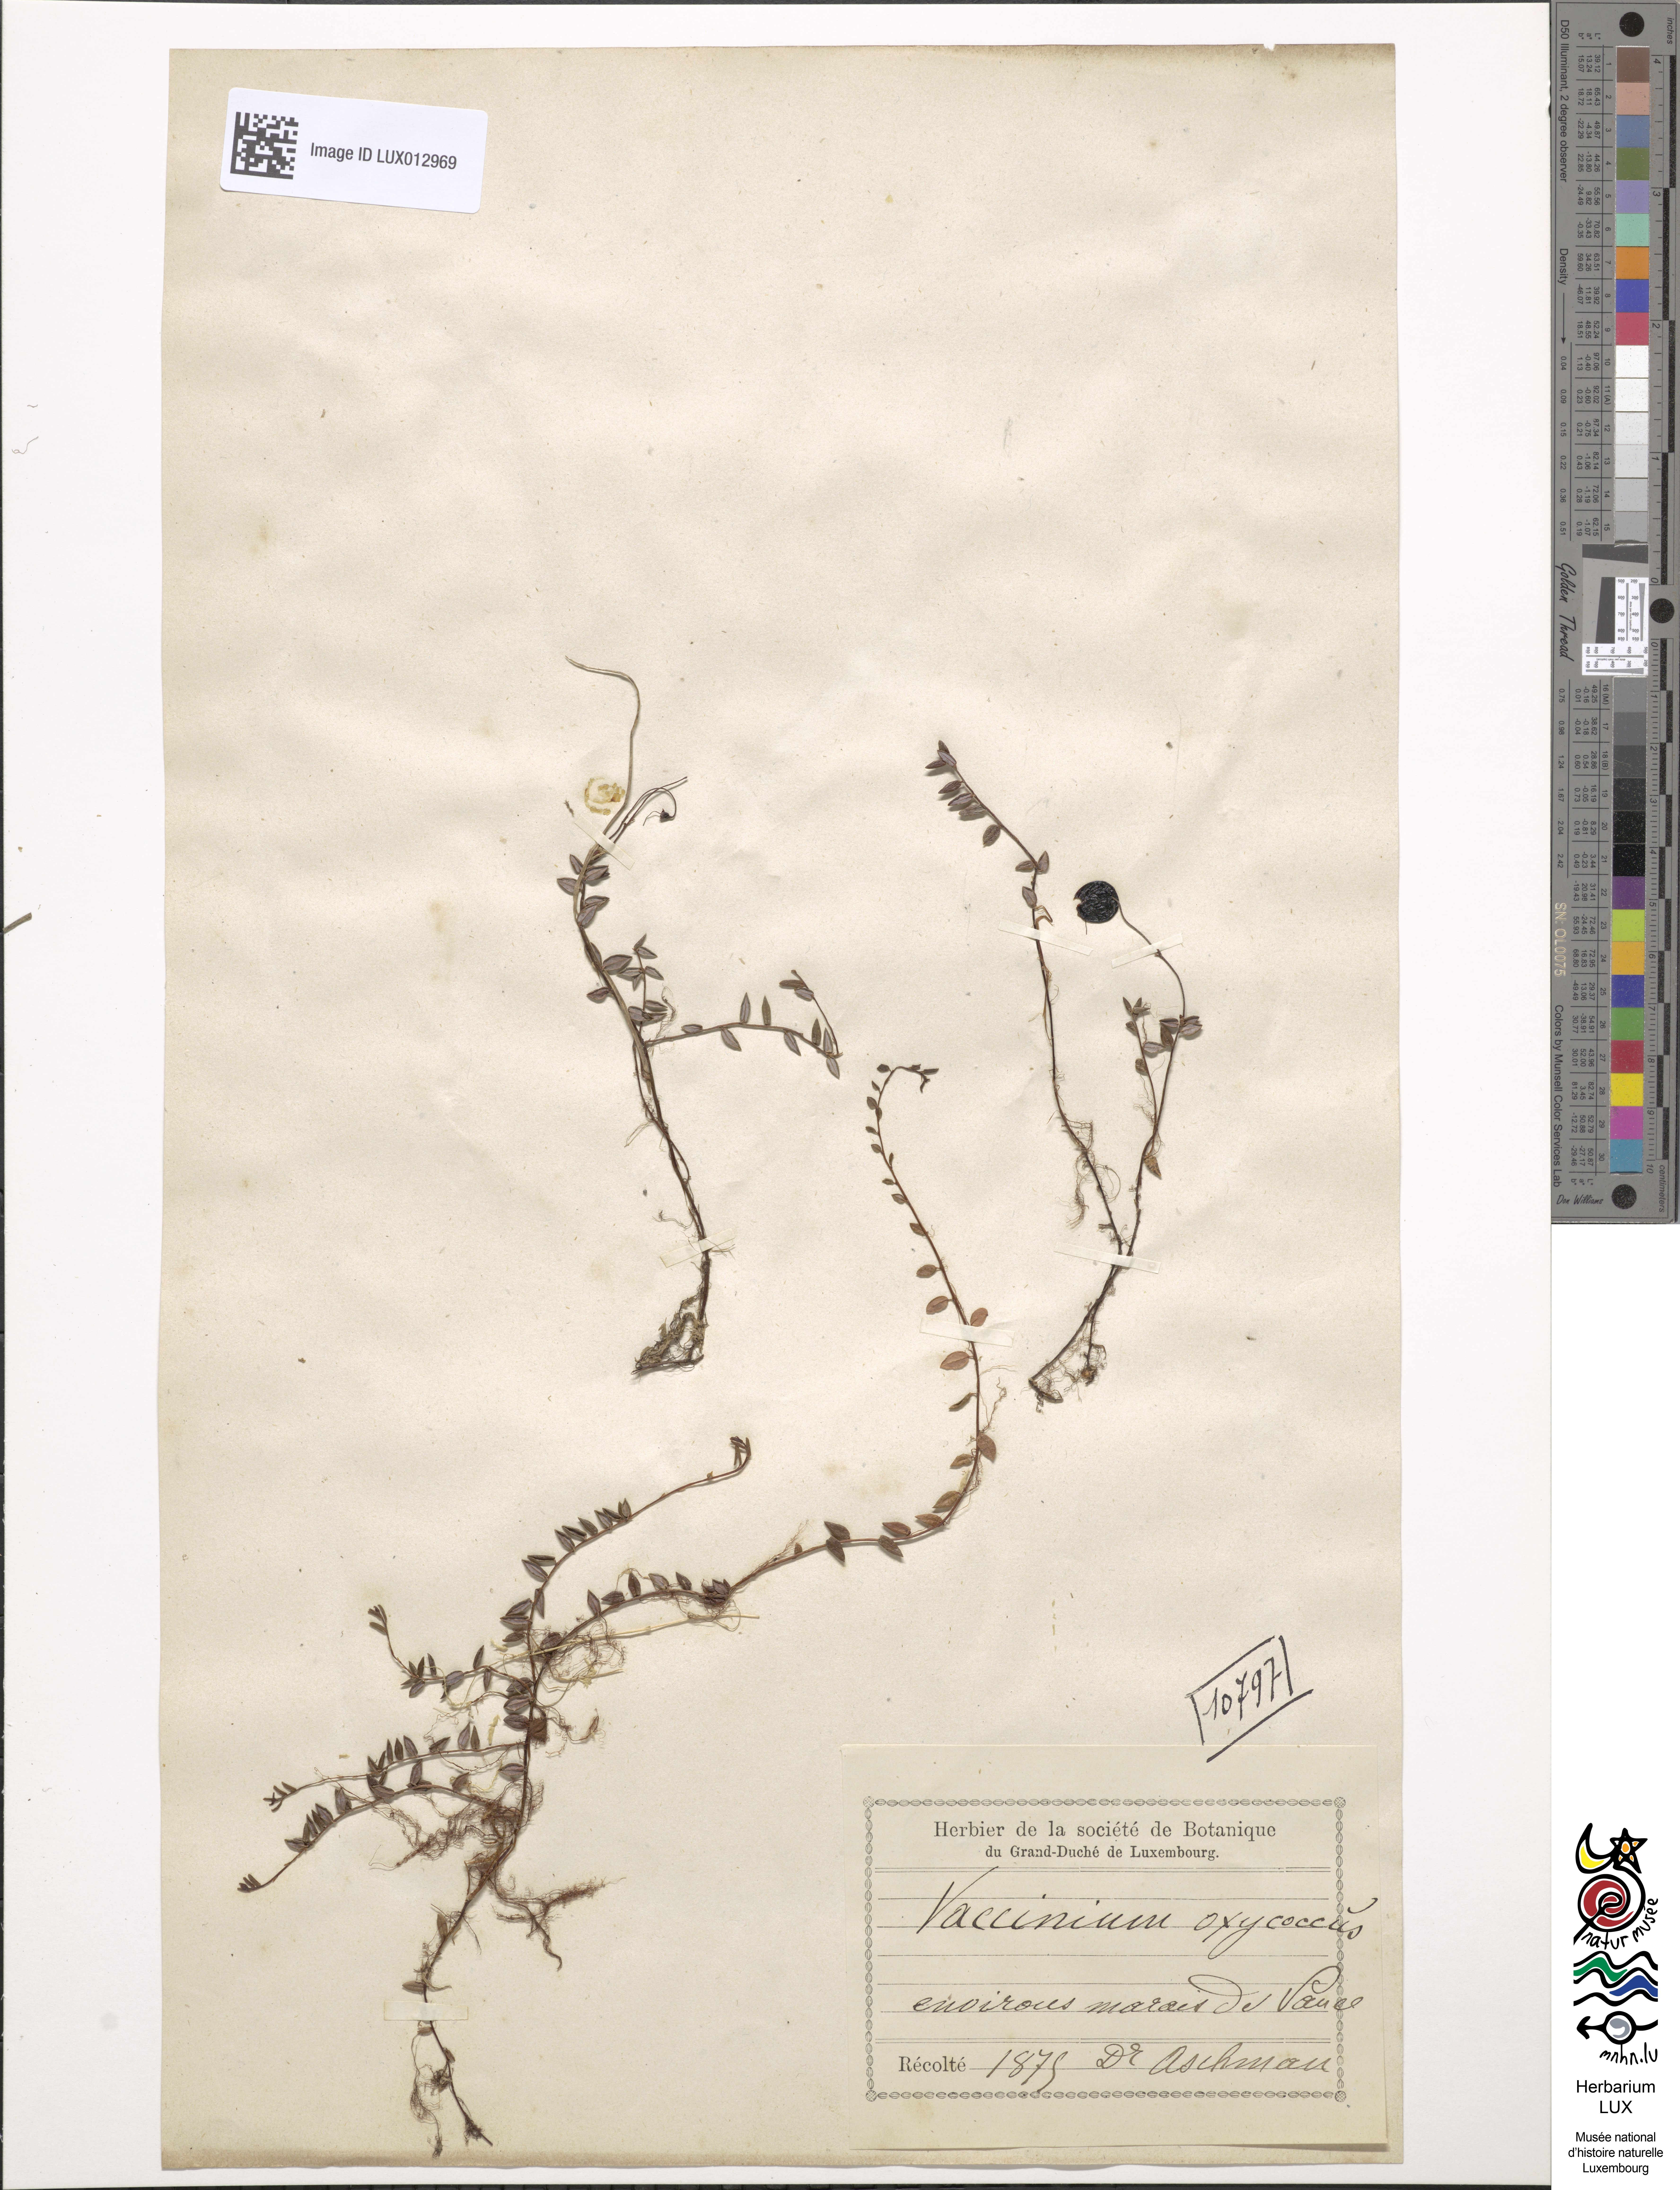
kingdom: Plantae
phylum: Tracheophyta
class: Magnoliopsida
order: Ericales
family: Ericaceae
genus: Vaccinium
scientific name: Vaccinium oxycoccos
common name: Cranberry
